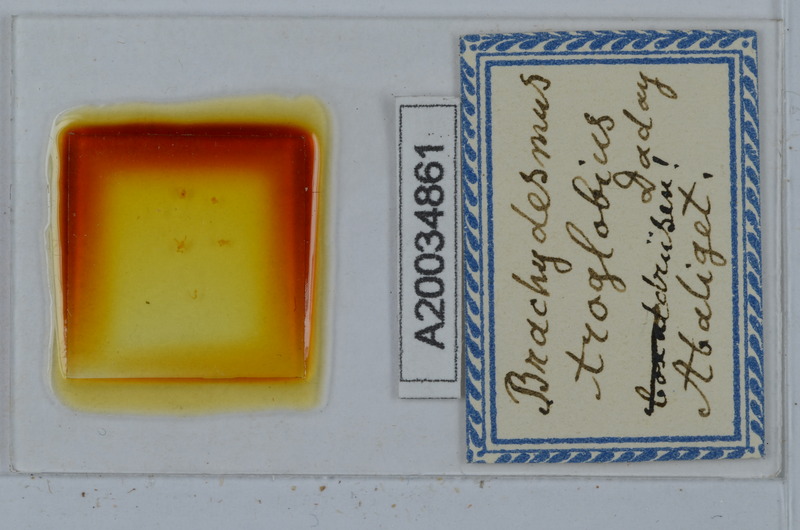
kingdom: Animalia
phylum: Arthropoda
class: Diplopoda
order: Polydesmida
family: Polydesmidae
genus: Brachydesmus
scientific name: Brachydesmus troglobius
